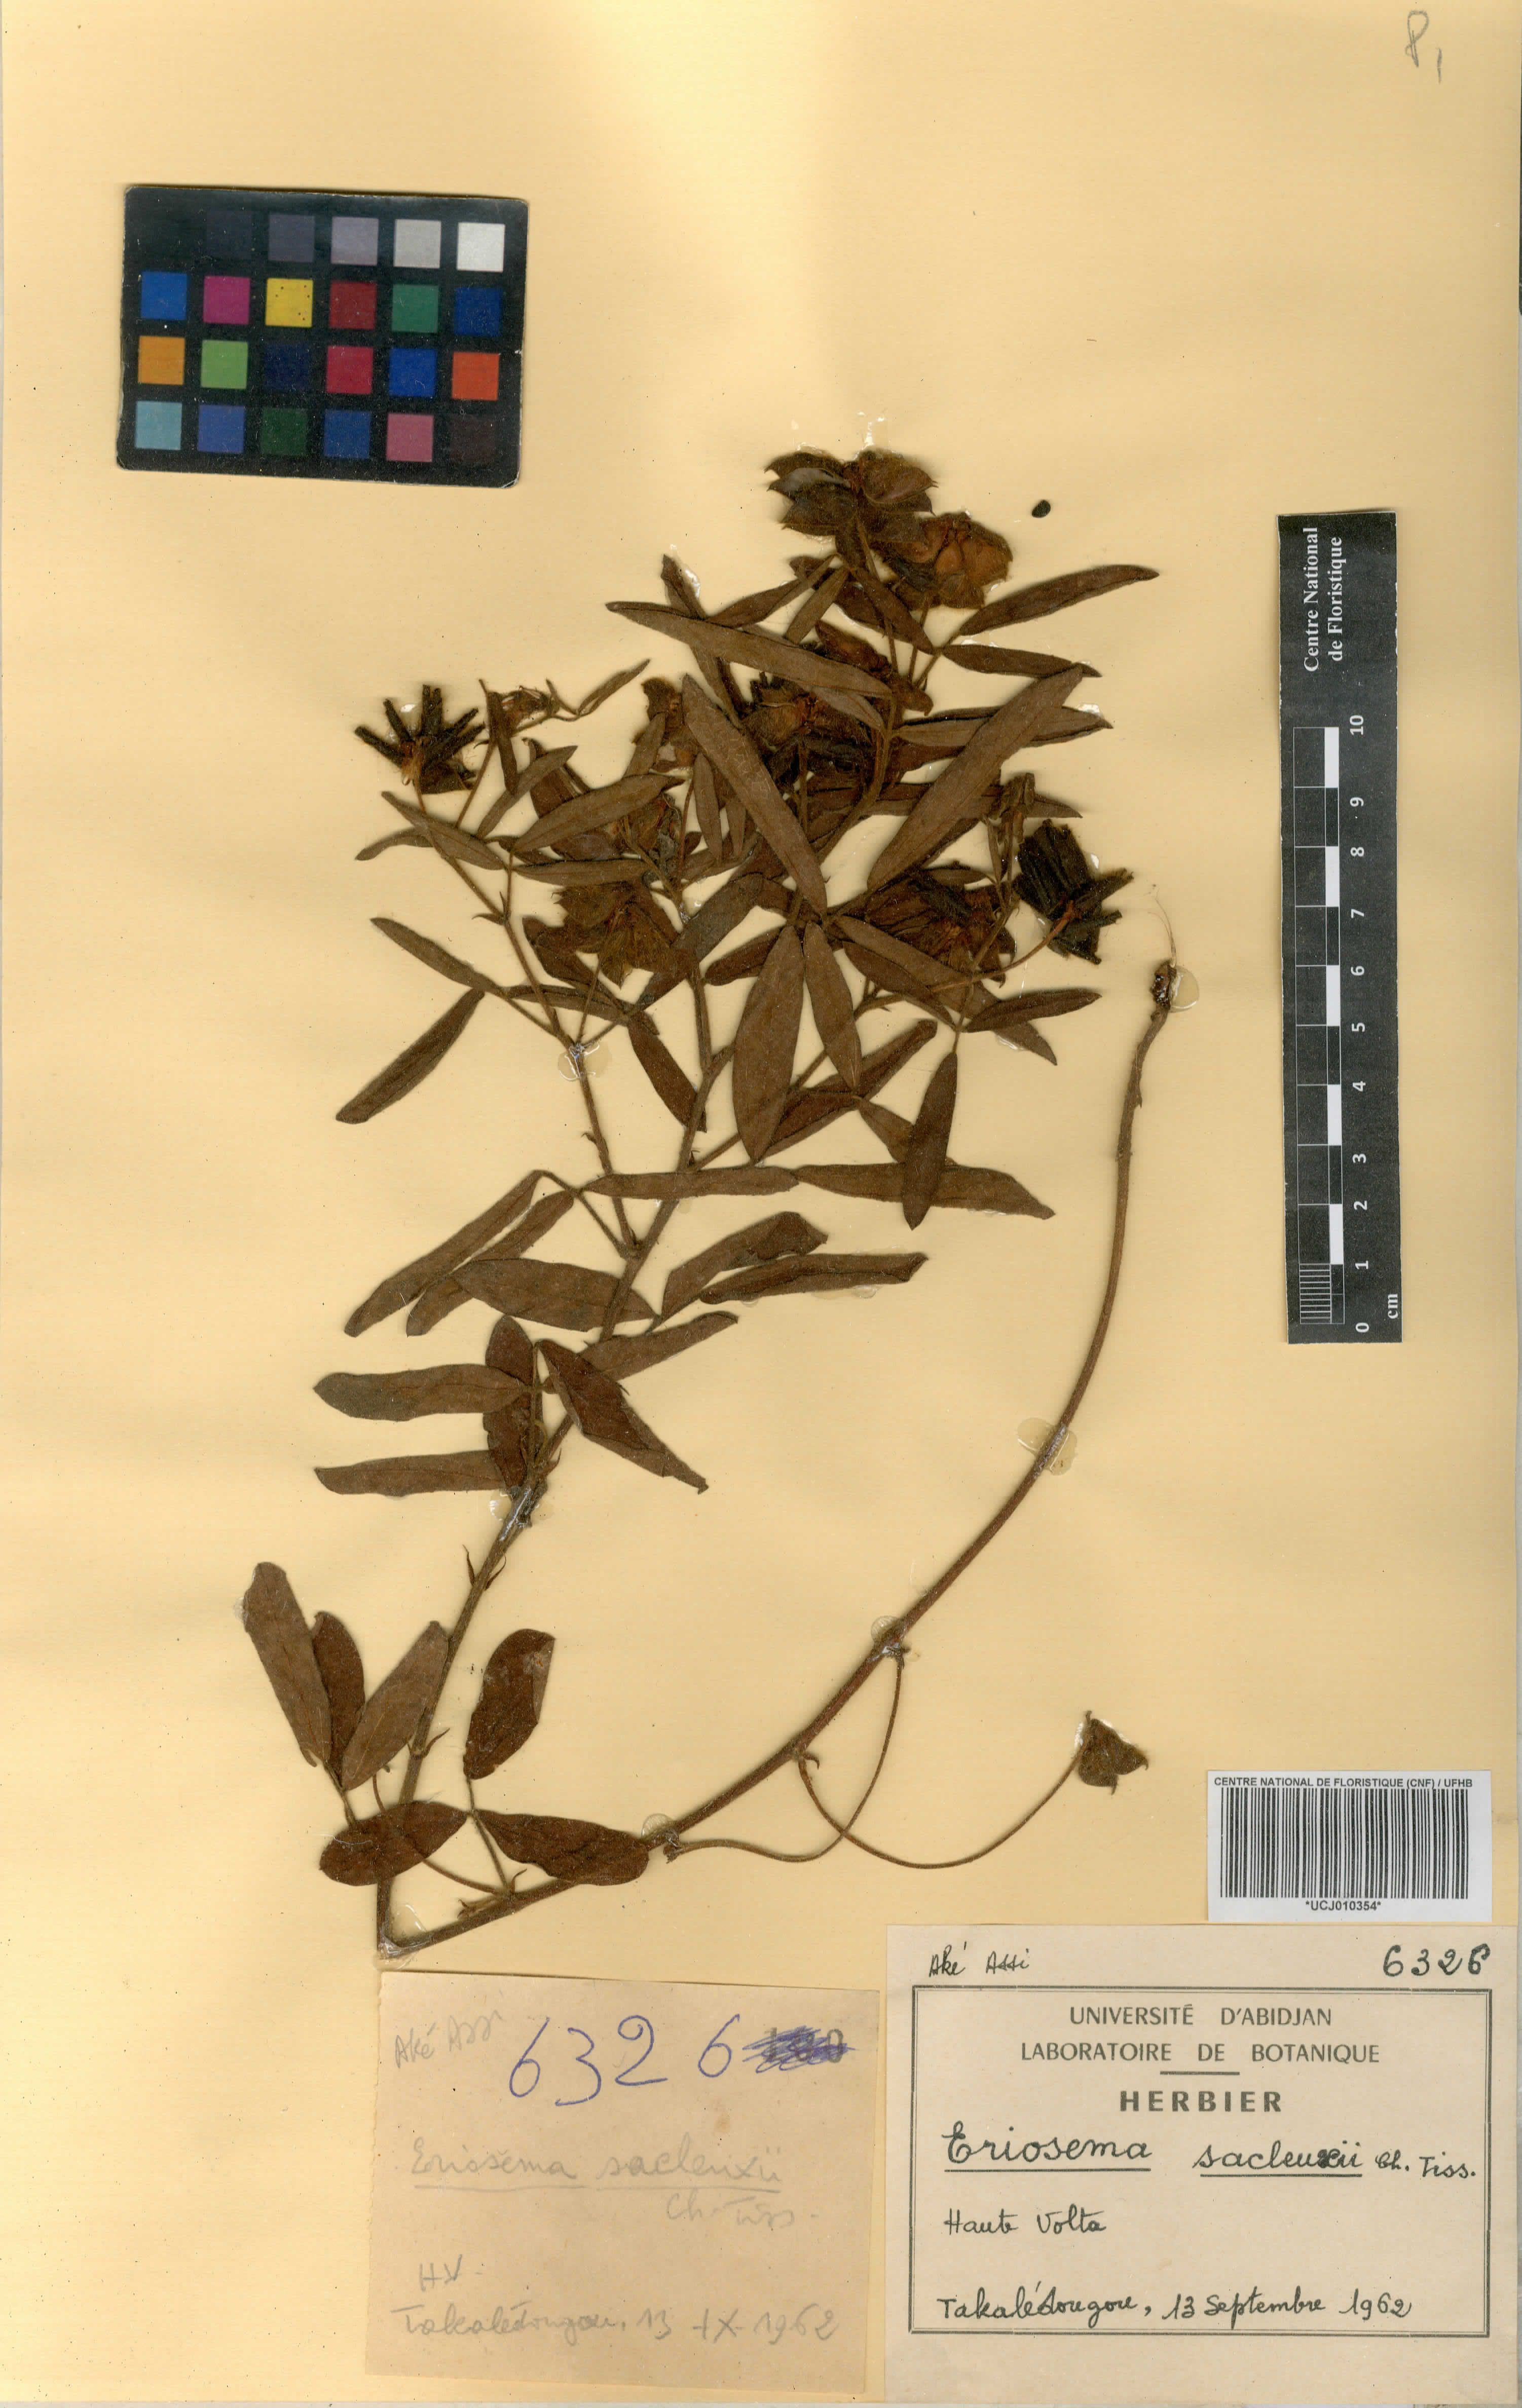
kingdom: Plantae
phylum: Tracheophyta
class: Magnoliopsida
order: Fabales
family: Fabaceae
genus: Eriosema
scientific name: Eriosema sacleuxii
